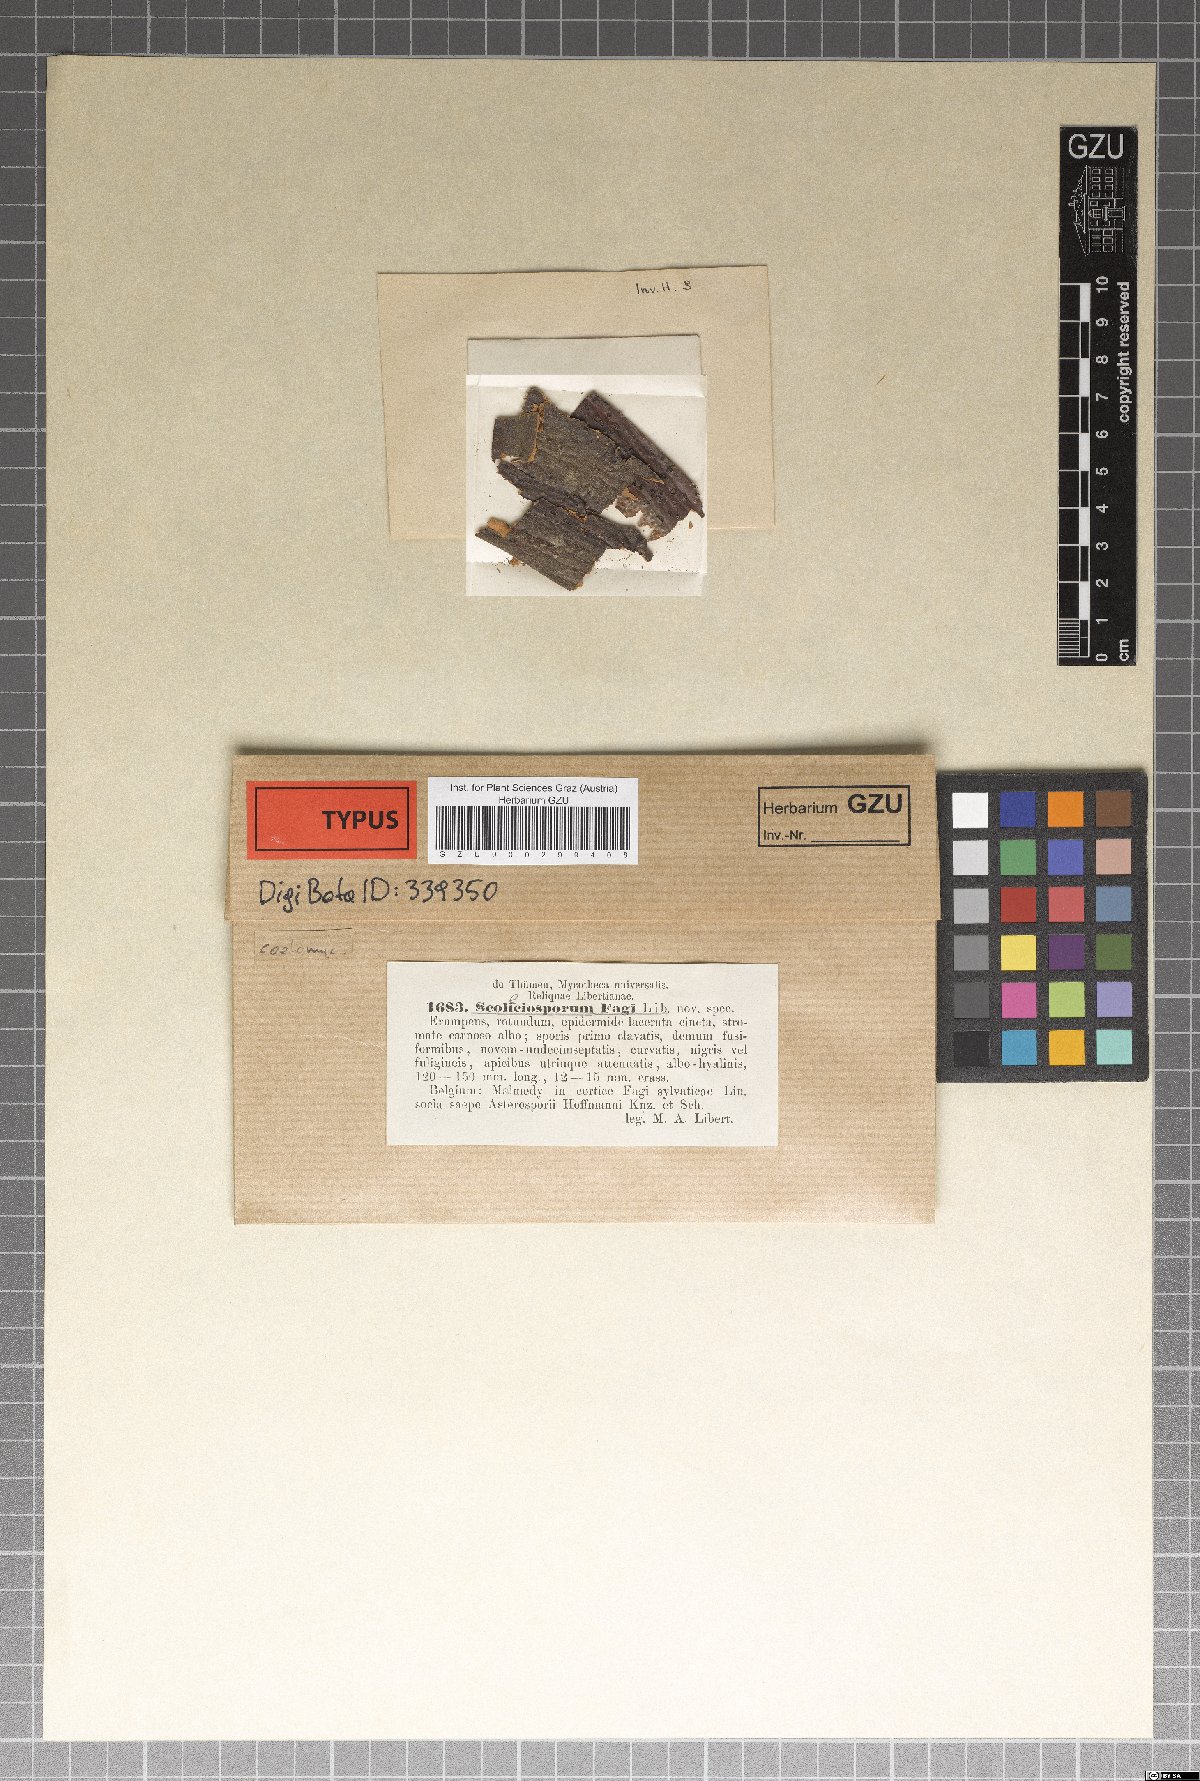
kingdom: Fungi
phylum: Ascomycota
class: Dothideomycetes
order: Pleosporales
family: Pleomassariaceae
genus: Scolicosporium
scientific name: Scolicosporium fagi
